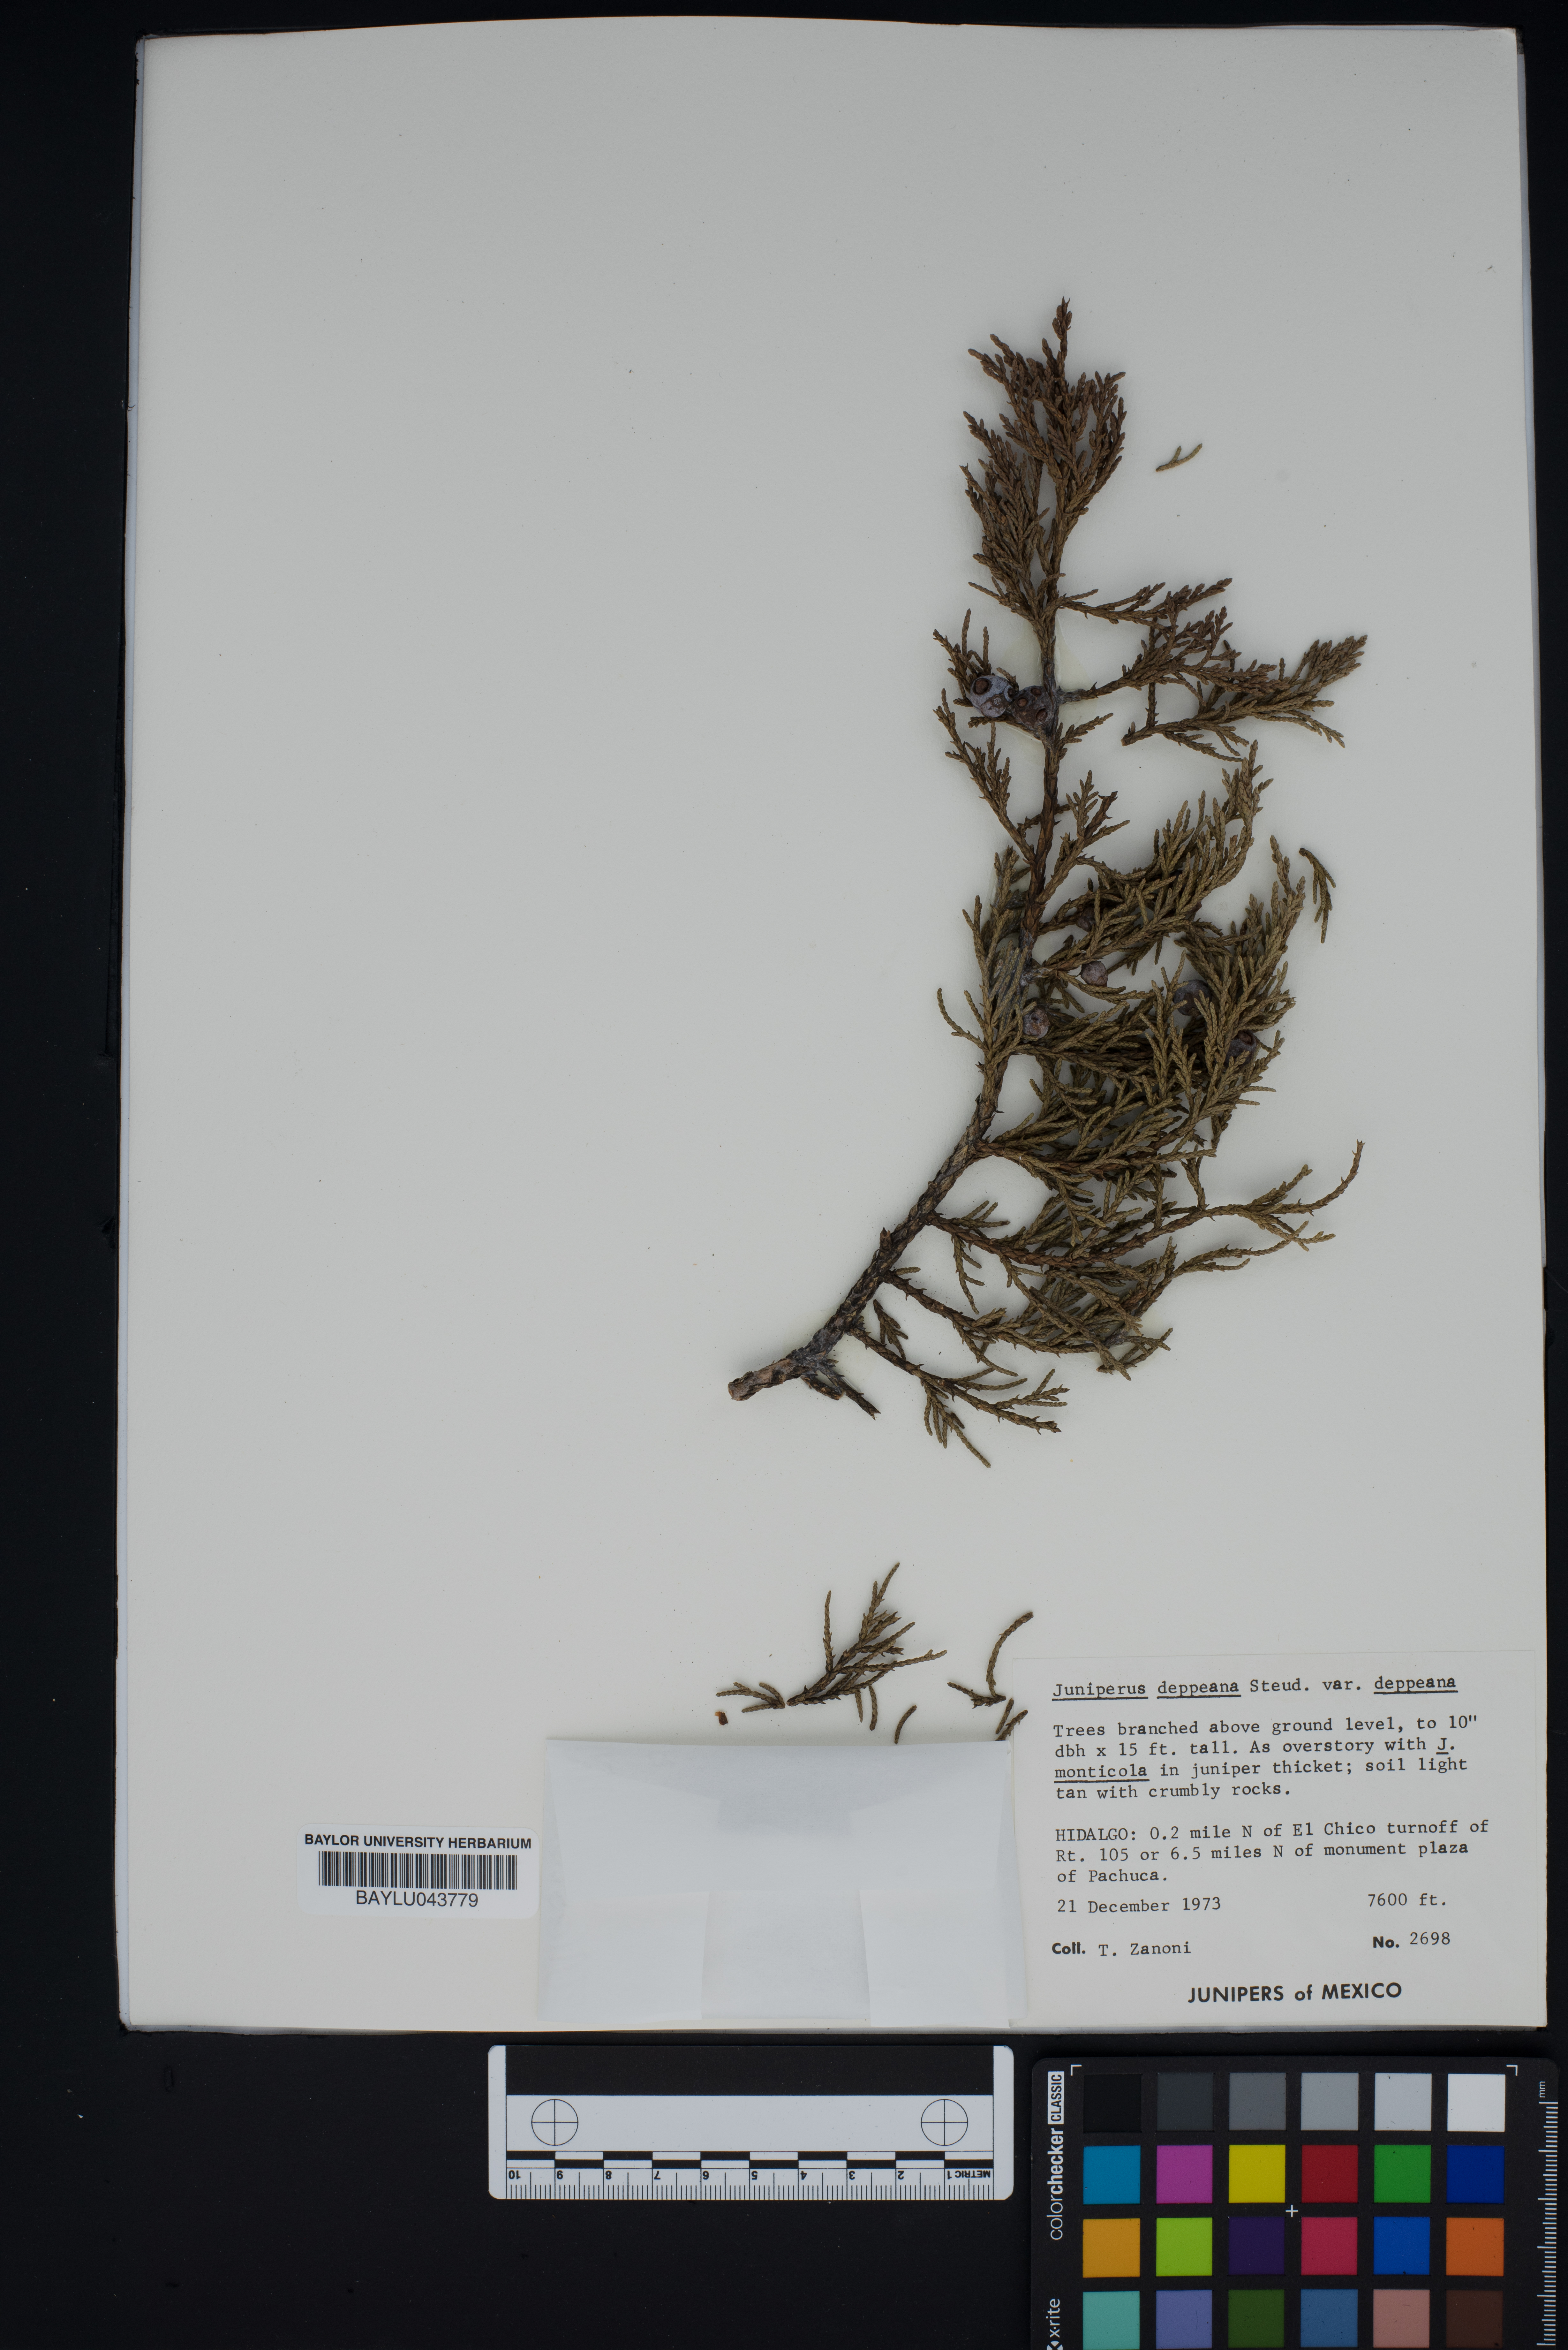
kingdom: Plantae
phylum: Tracheophyta
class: Pinopsida
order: Pinales
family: Cupressaceae
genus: Juniperus
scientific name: Juniperus deppeana
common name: Alligator juniper
